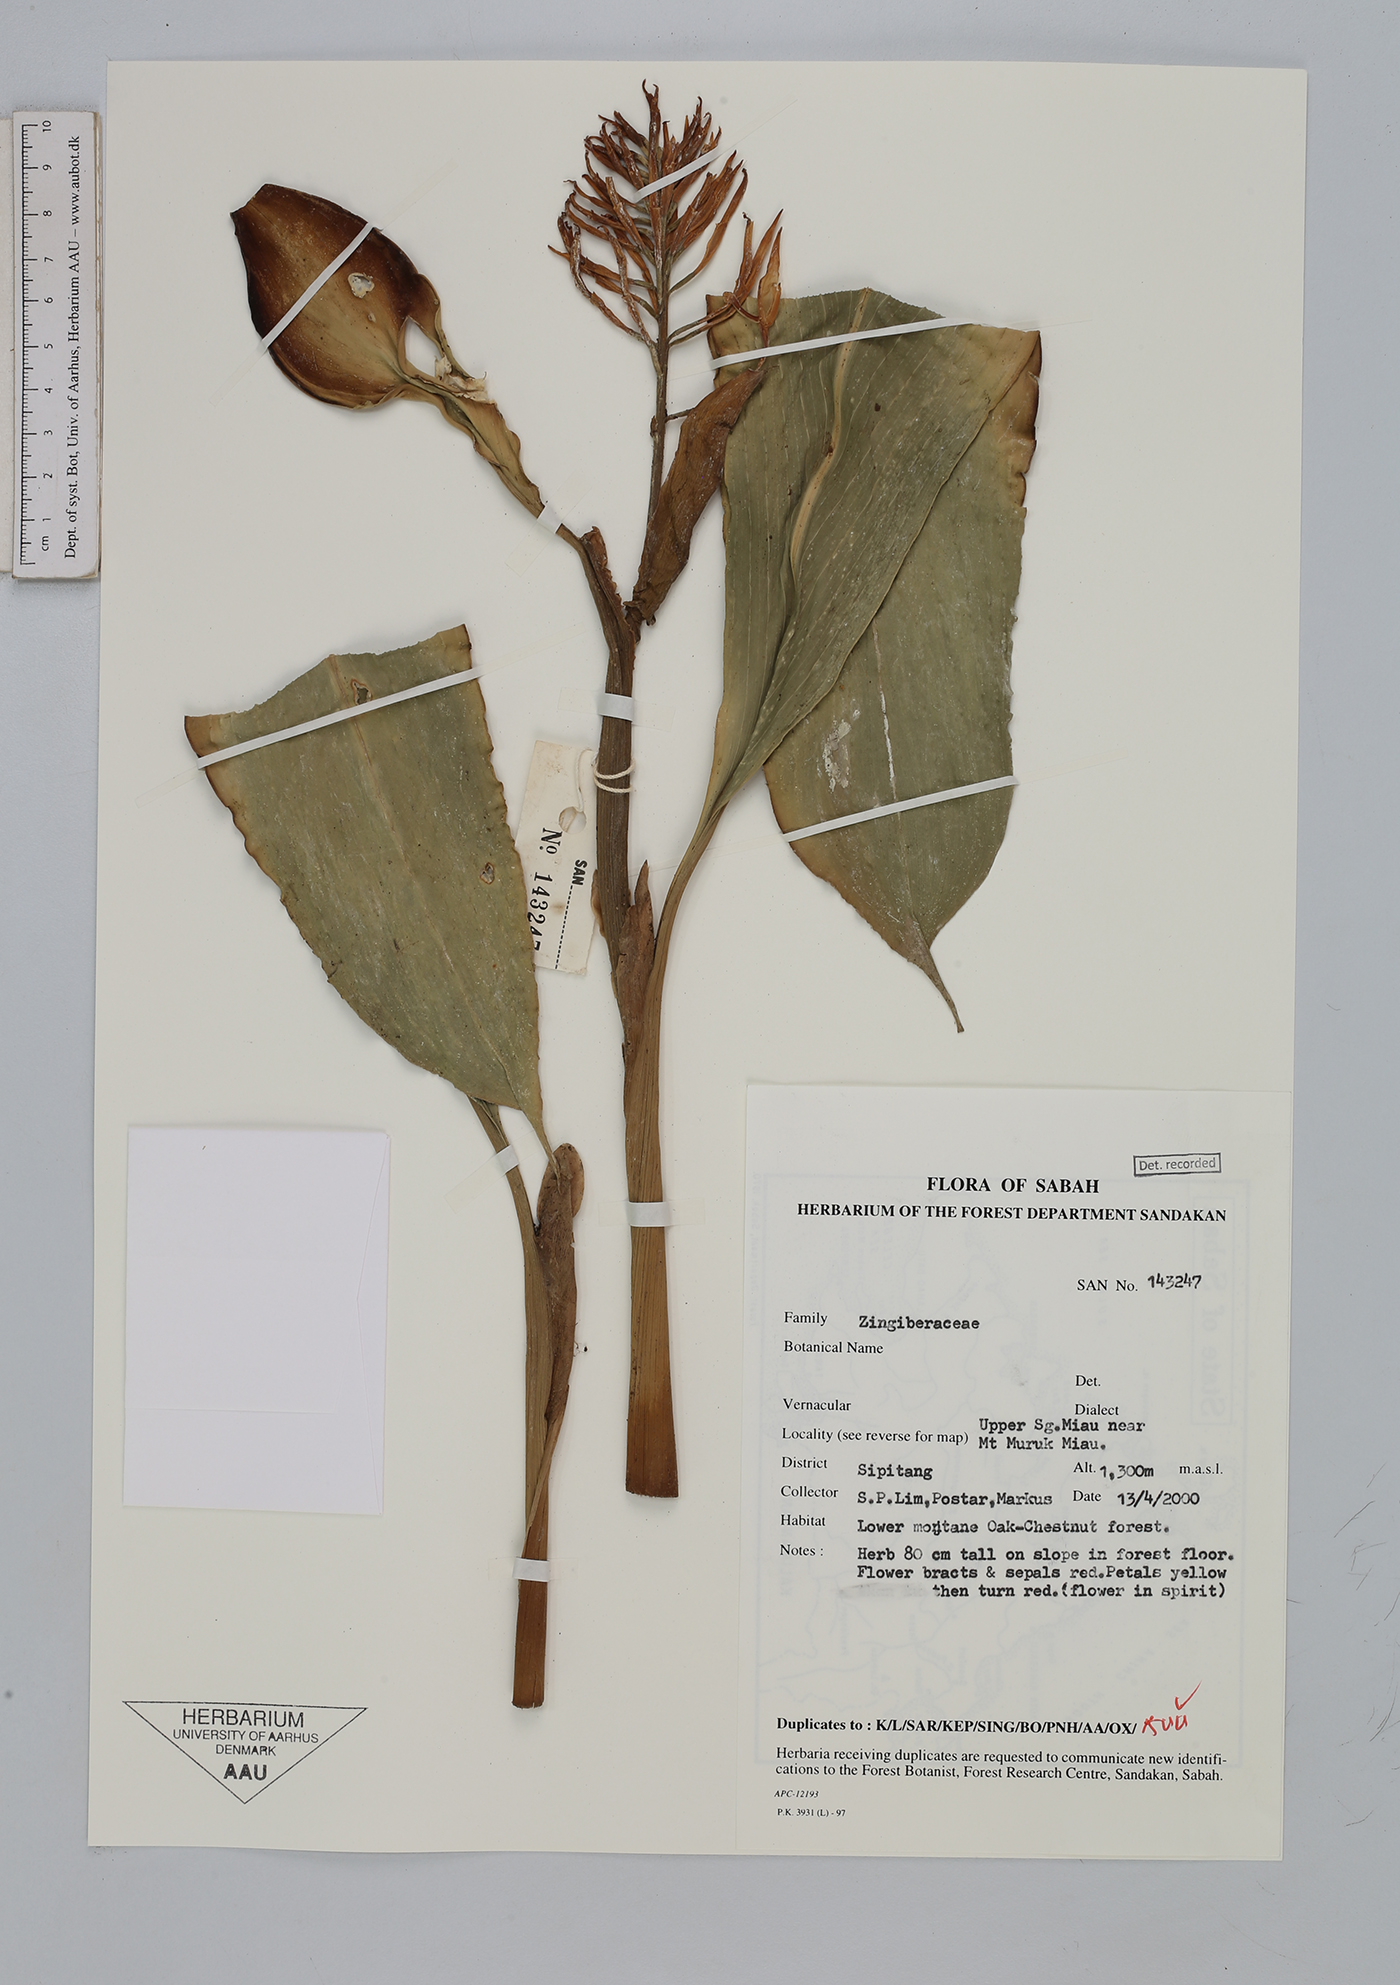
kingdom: Plantae
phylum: Tracheophyta
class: Liliopsida
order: Zingiberales
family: Zingiberaceae
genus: Burbidgea
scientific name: Burbidgea
